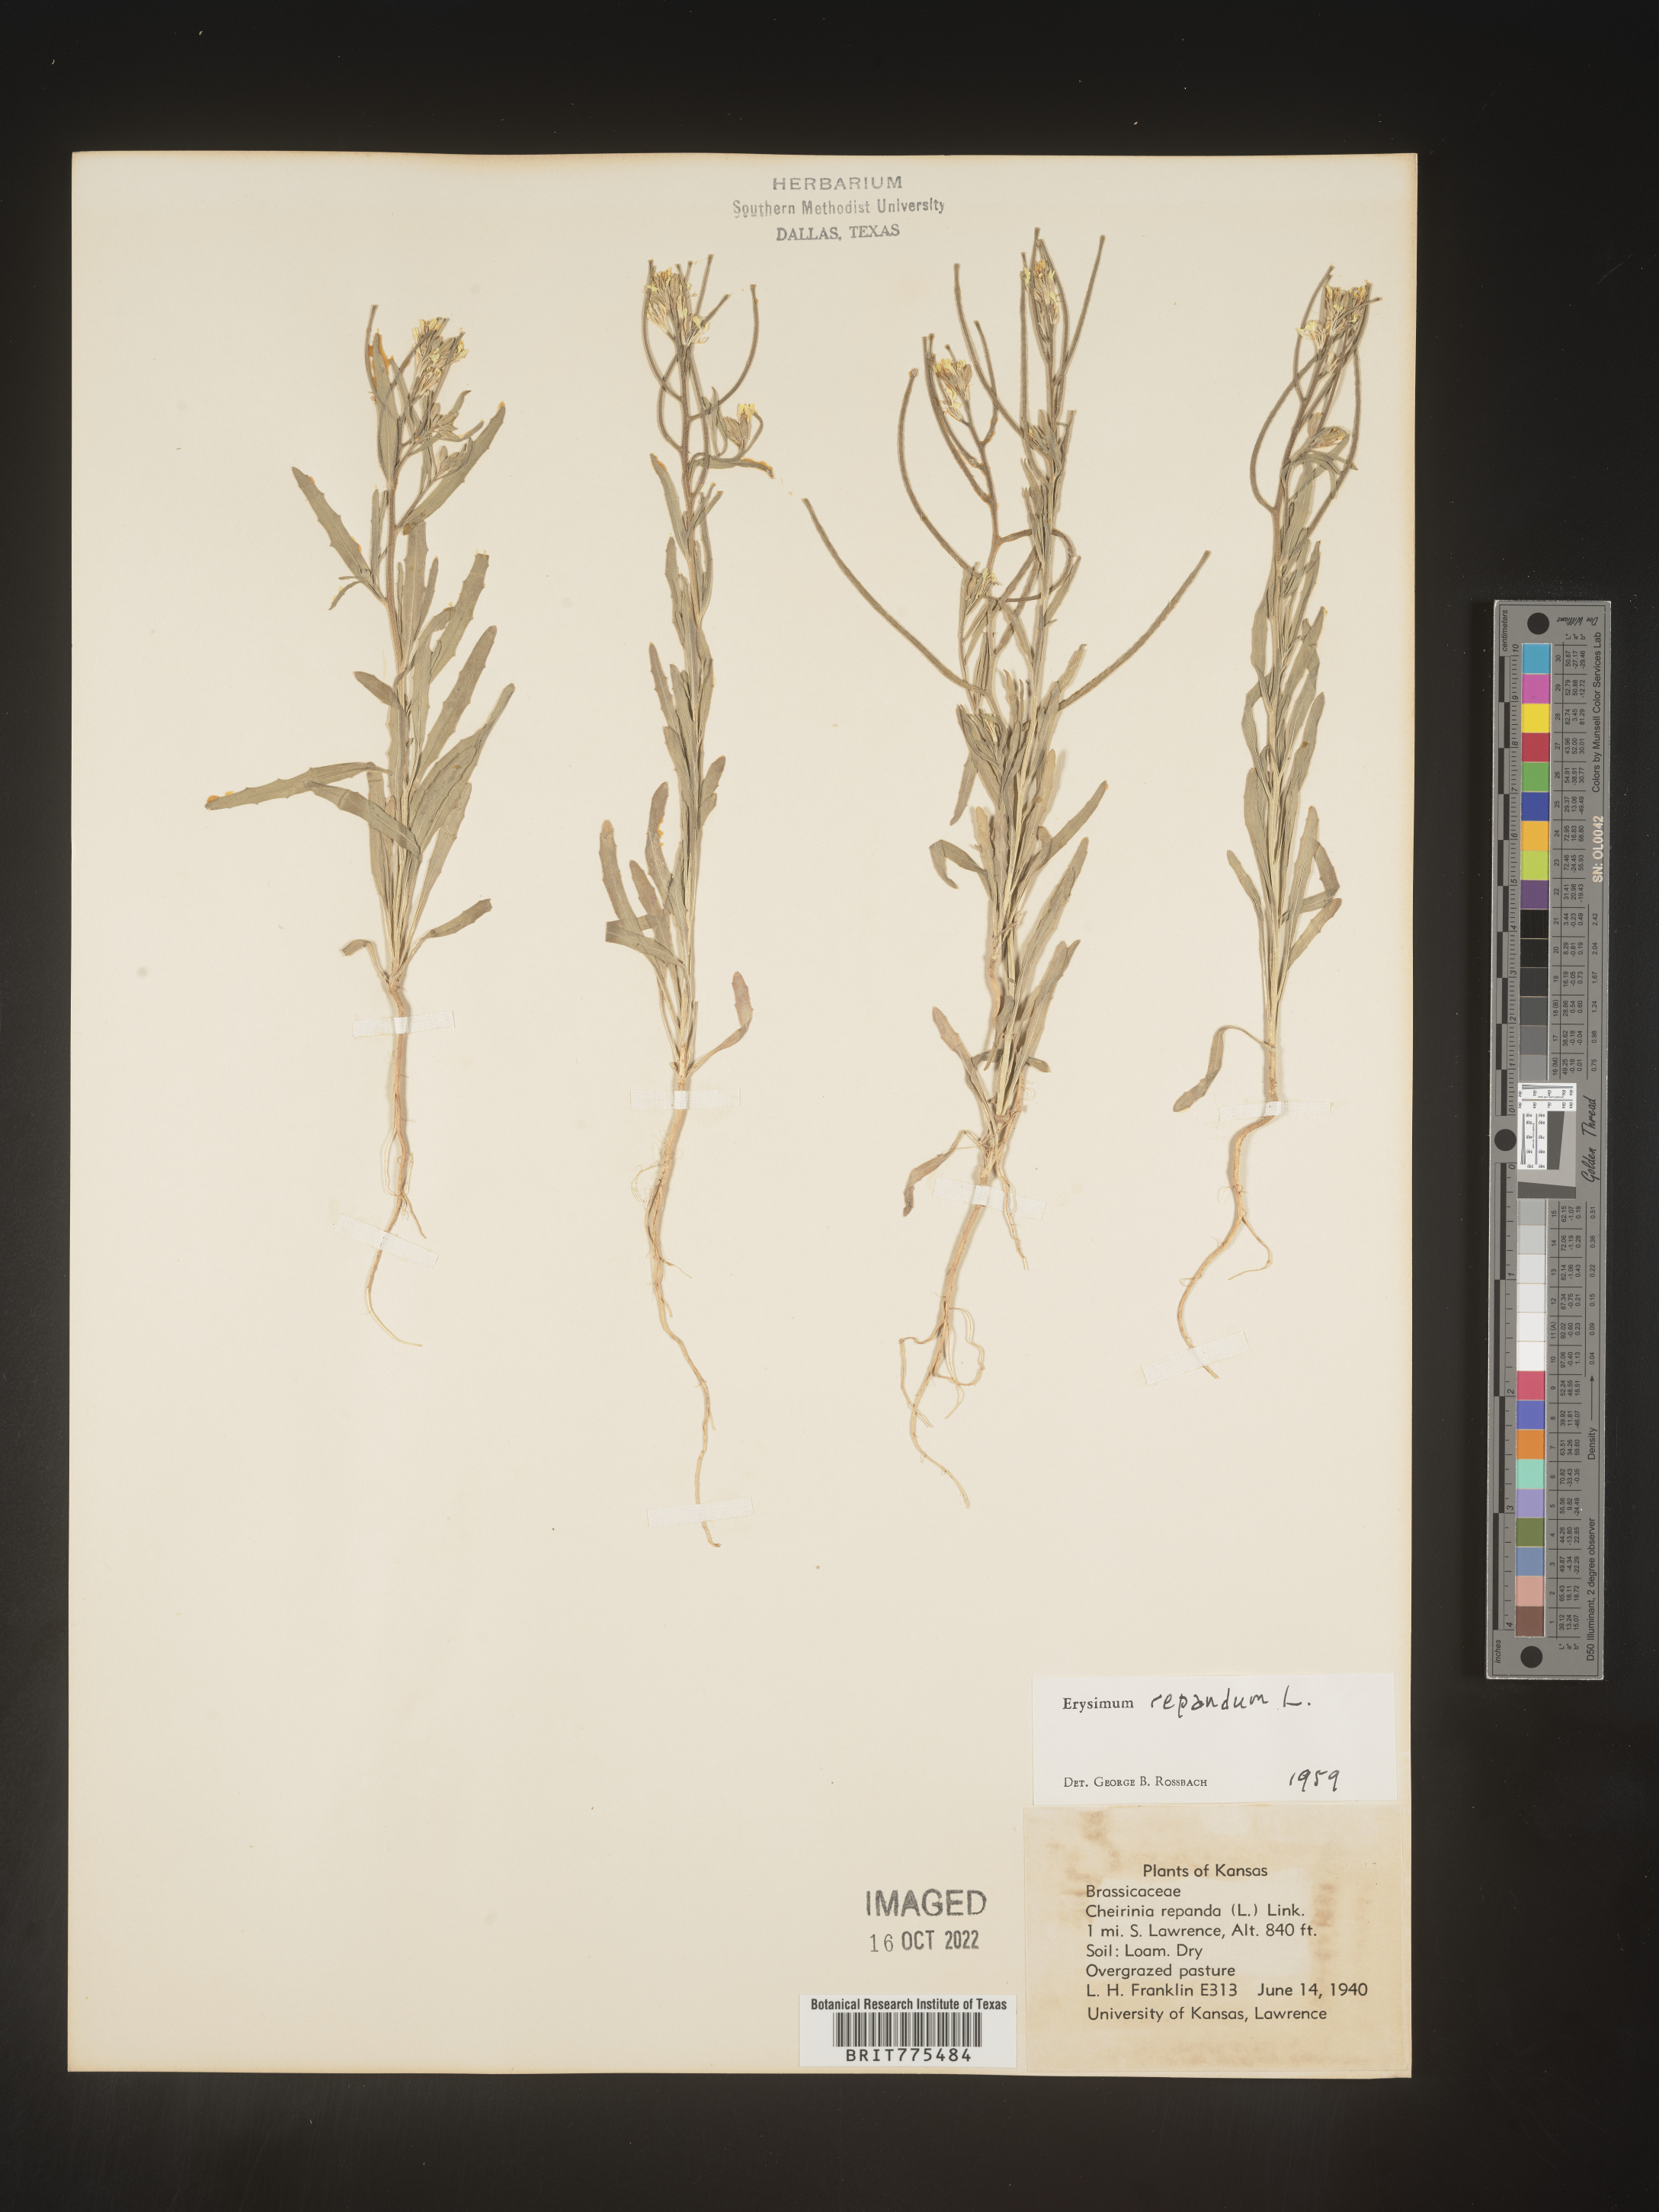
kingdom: Plantae
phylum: Tracheophyta
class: Magnoliopsida
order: Brassicales
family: Brassicaceae
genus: Erysimum
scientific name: Erysimum repandum
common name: Spreading wallflower
